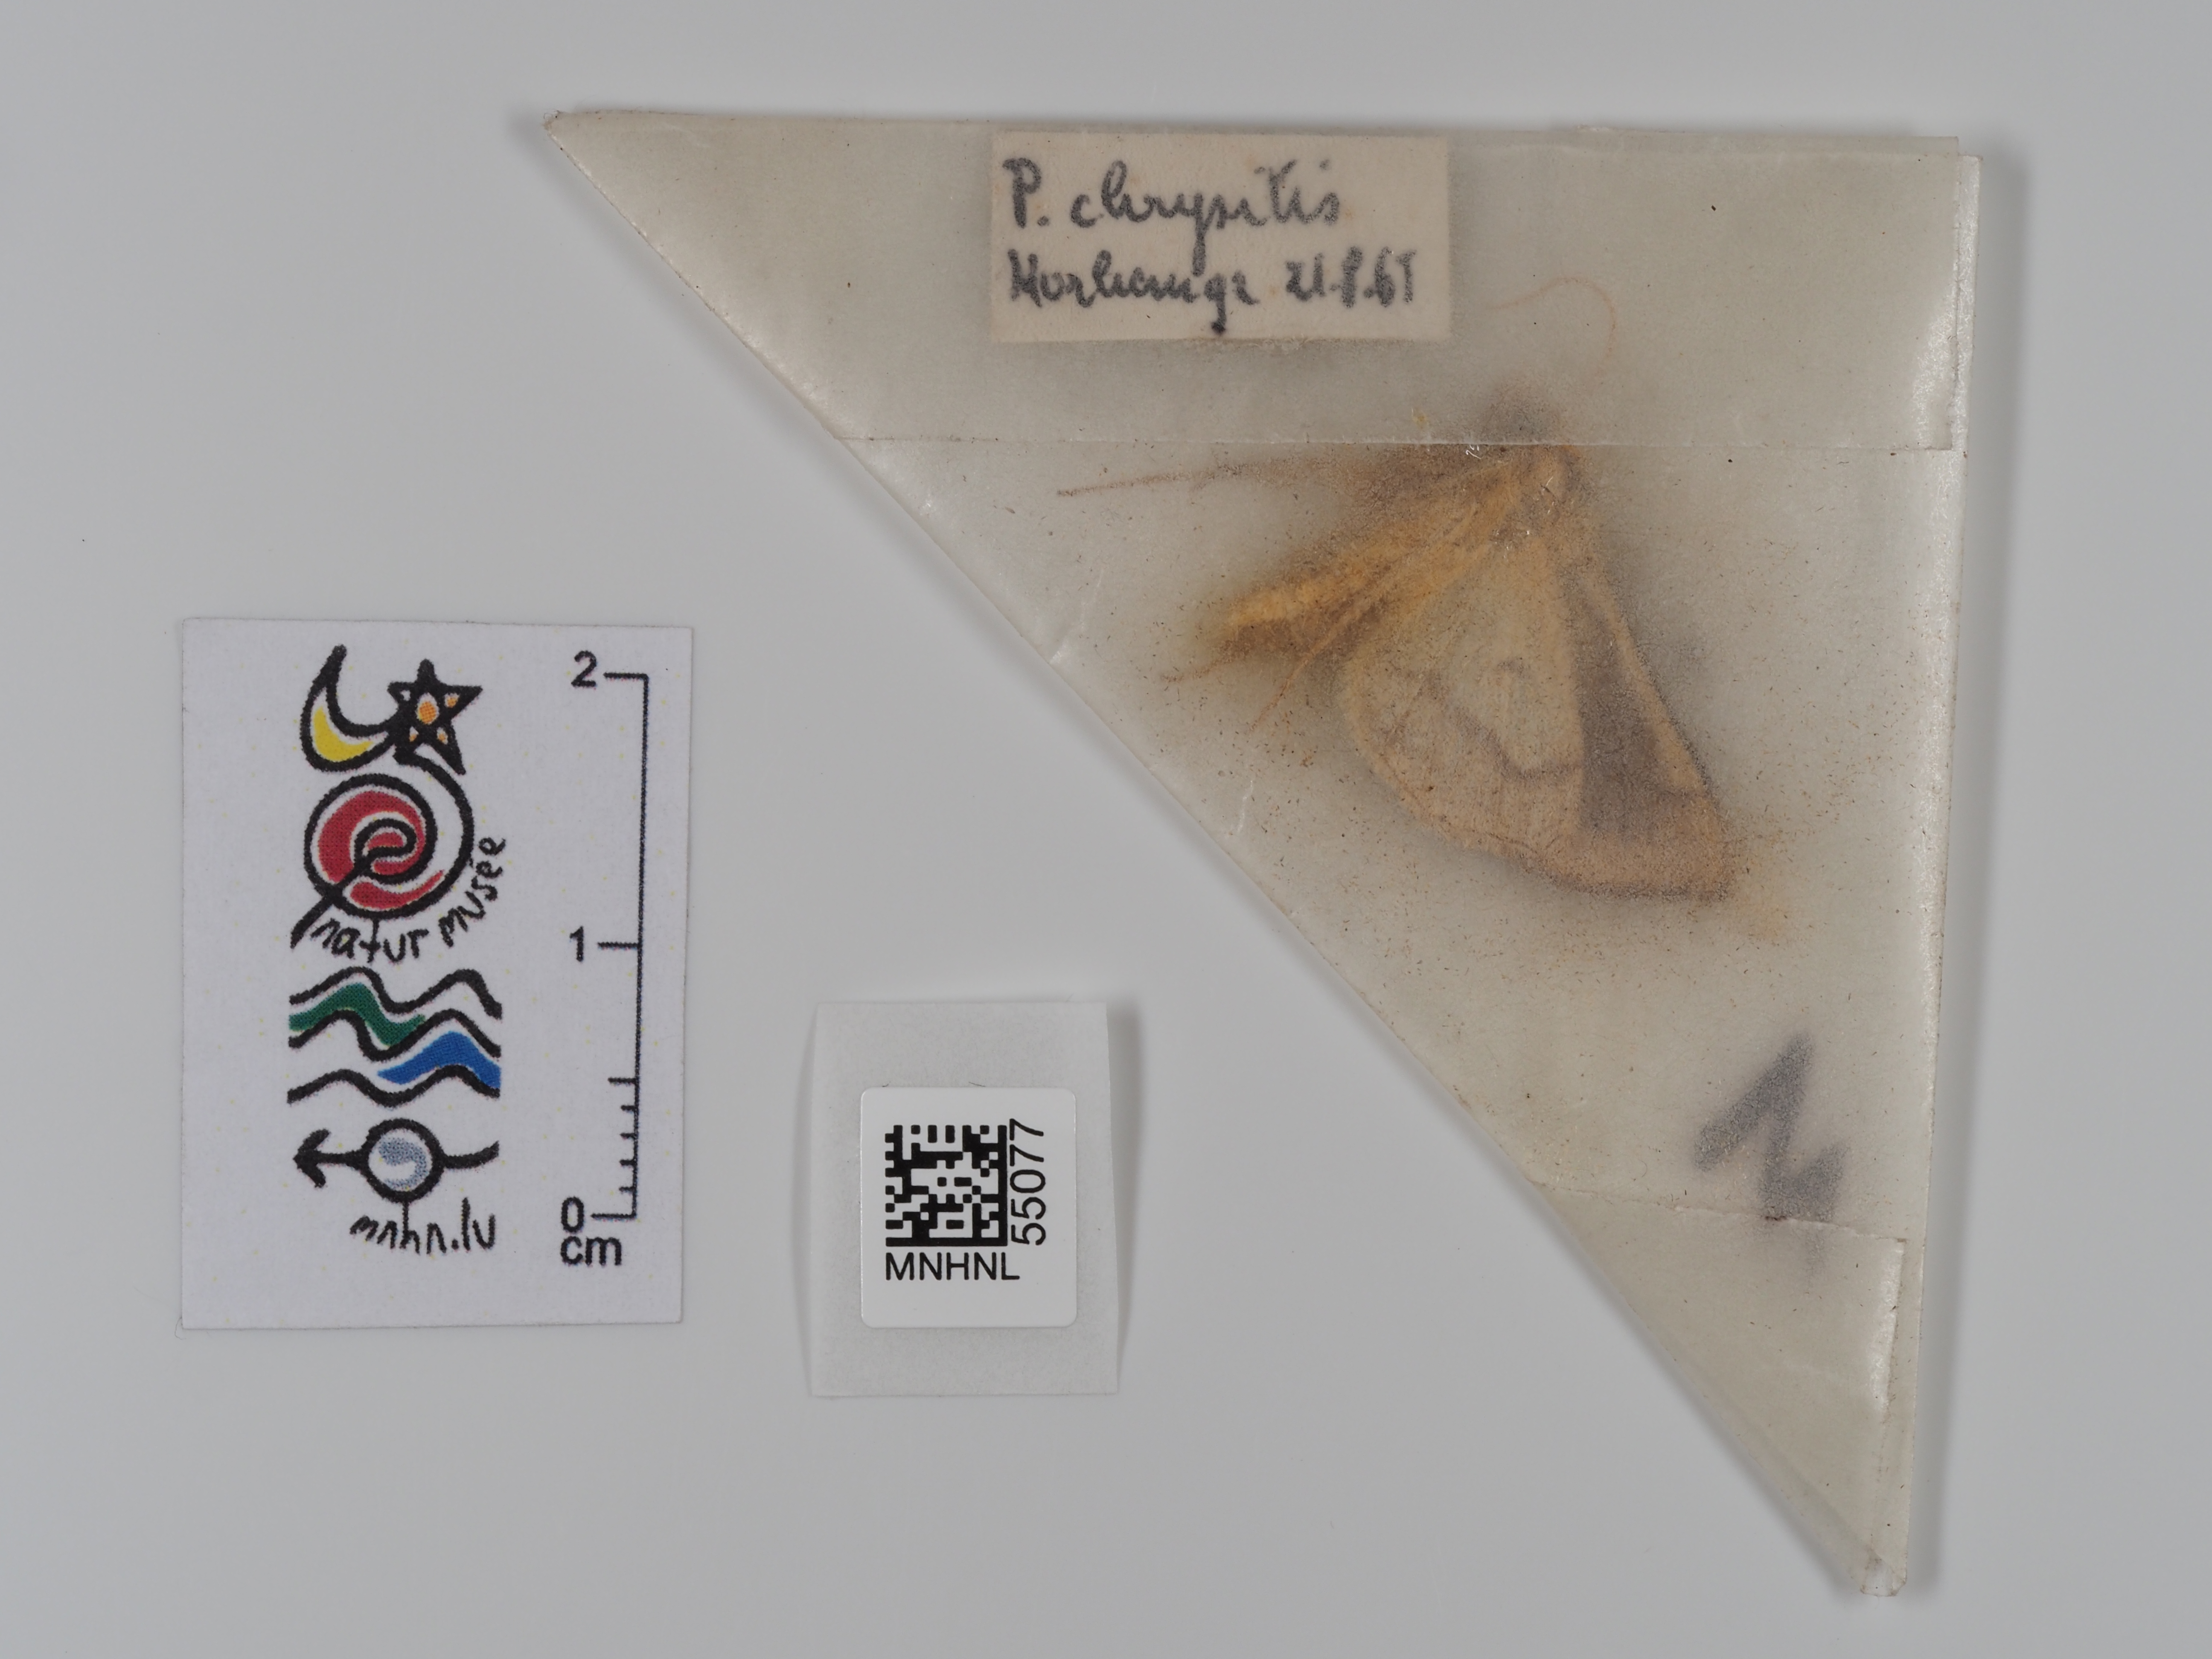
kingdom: Animalia
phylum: Arthropoda
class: Insecta
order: Lepidoptera
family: Noctuidae
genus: Diachrysia
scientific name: Diachrysia chrysitis
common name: Burnished brass
